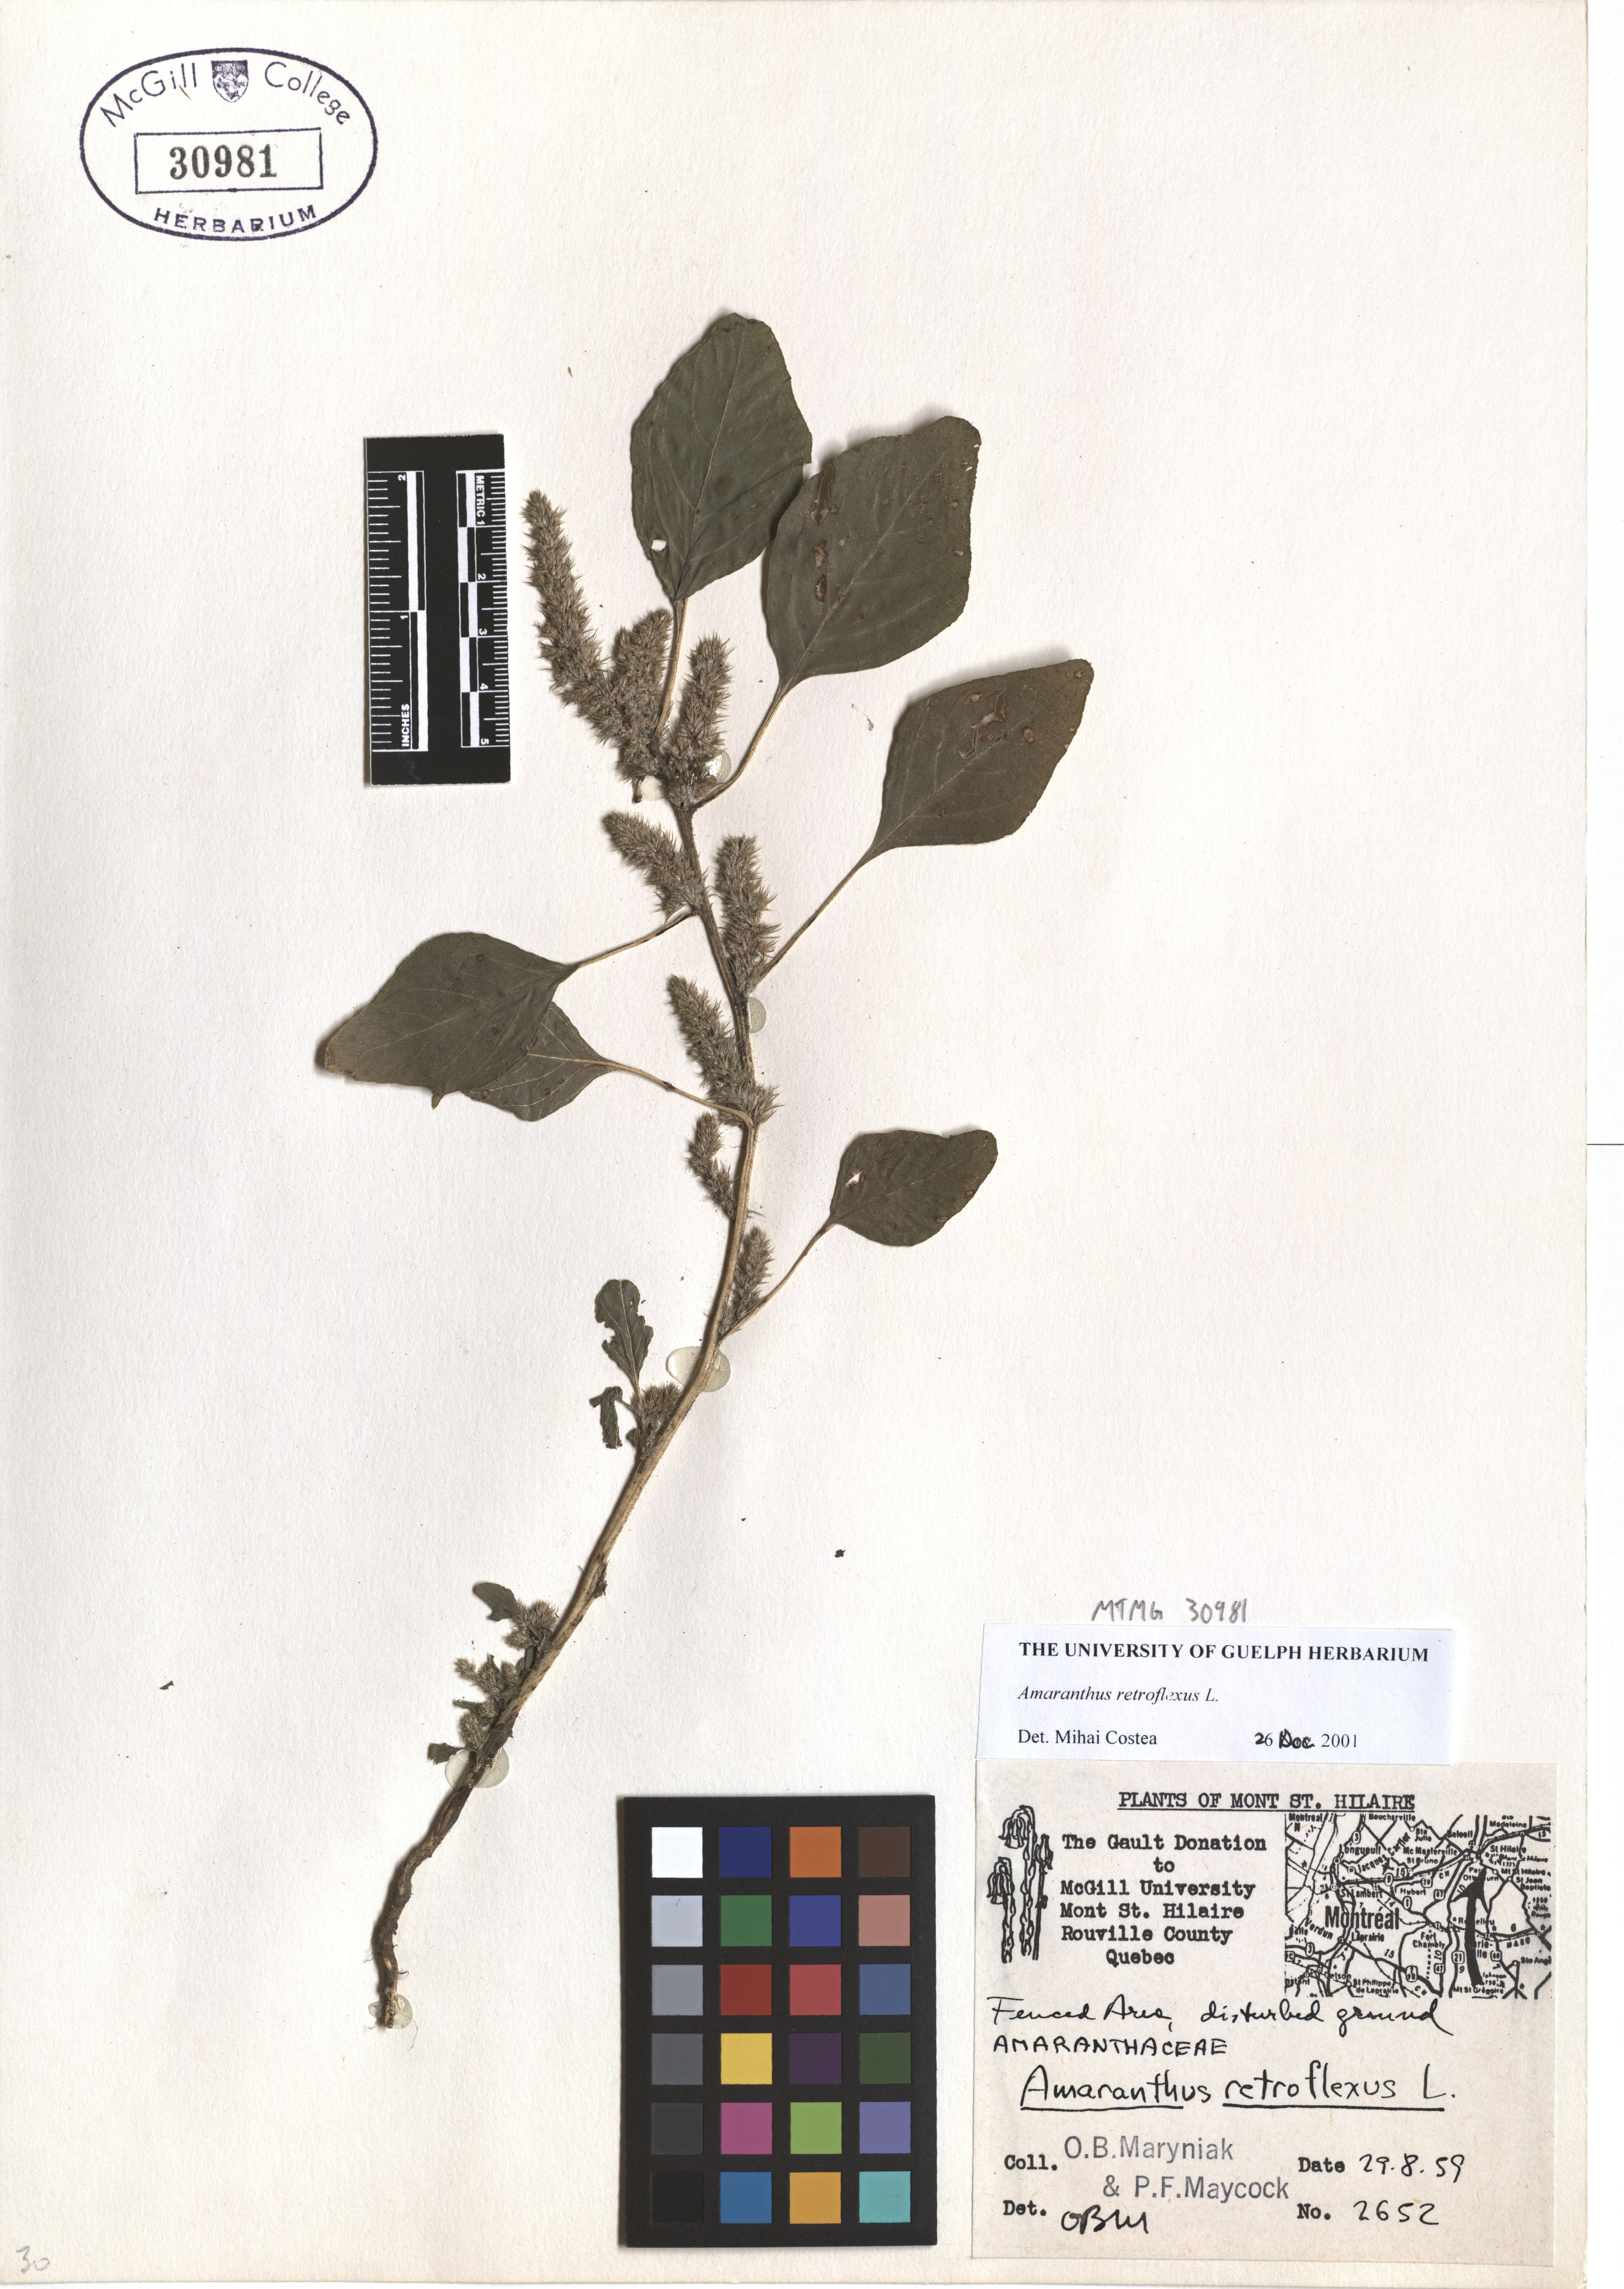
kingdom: Plantae
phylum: Tracheophyta
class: Magnoliopsida
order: Caryophyllales
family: Amaranthaceae
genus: Amaranthus
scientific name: Amaranthus retroflexus
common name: Redroot amaranth
